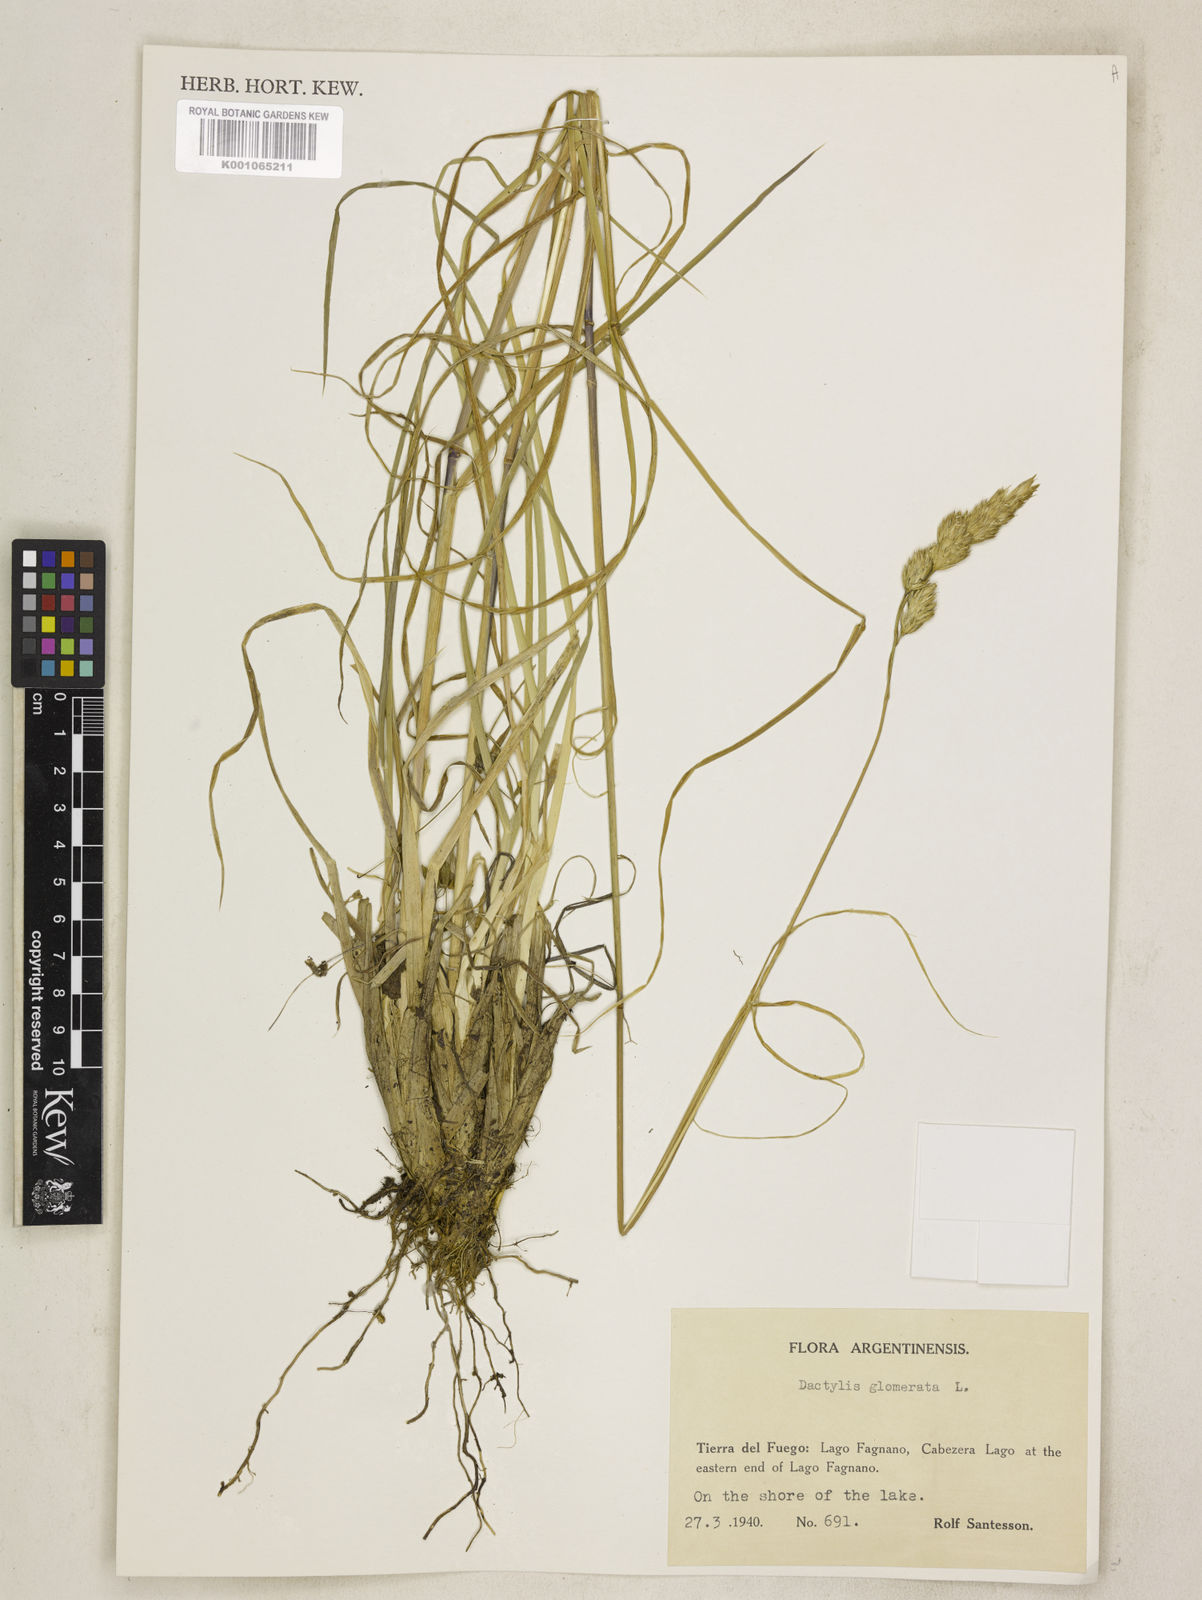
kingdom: Plantae
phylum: Tracheophyta
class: Liliopsida
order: Poales
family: Poaceae
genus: Dactylis
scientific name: Dactylis glomerata
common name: Orchardgrass
